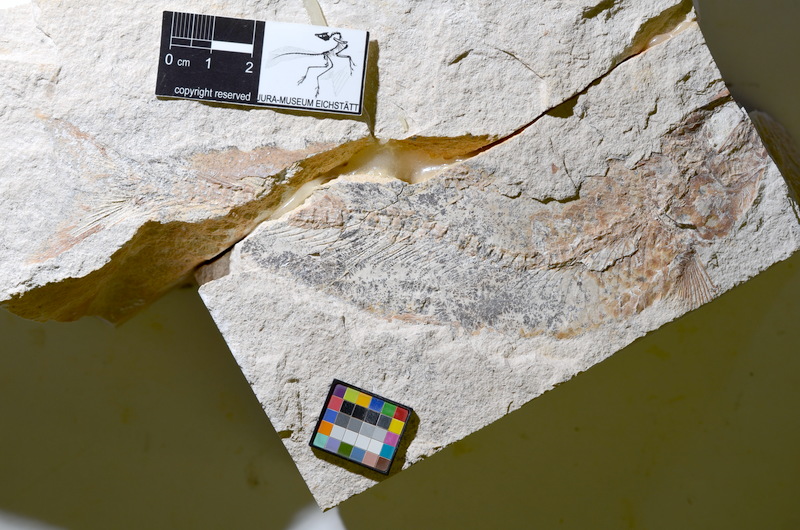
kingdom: Animalia
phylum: Chordata
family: Ascalaboidae
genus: Tharsis
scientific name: Tharsis dubius
